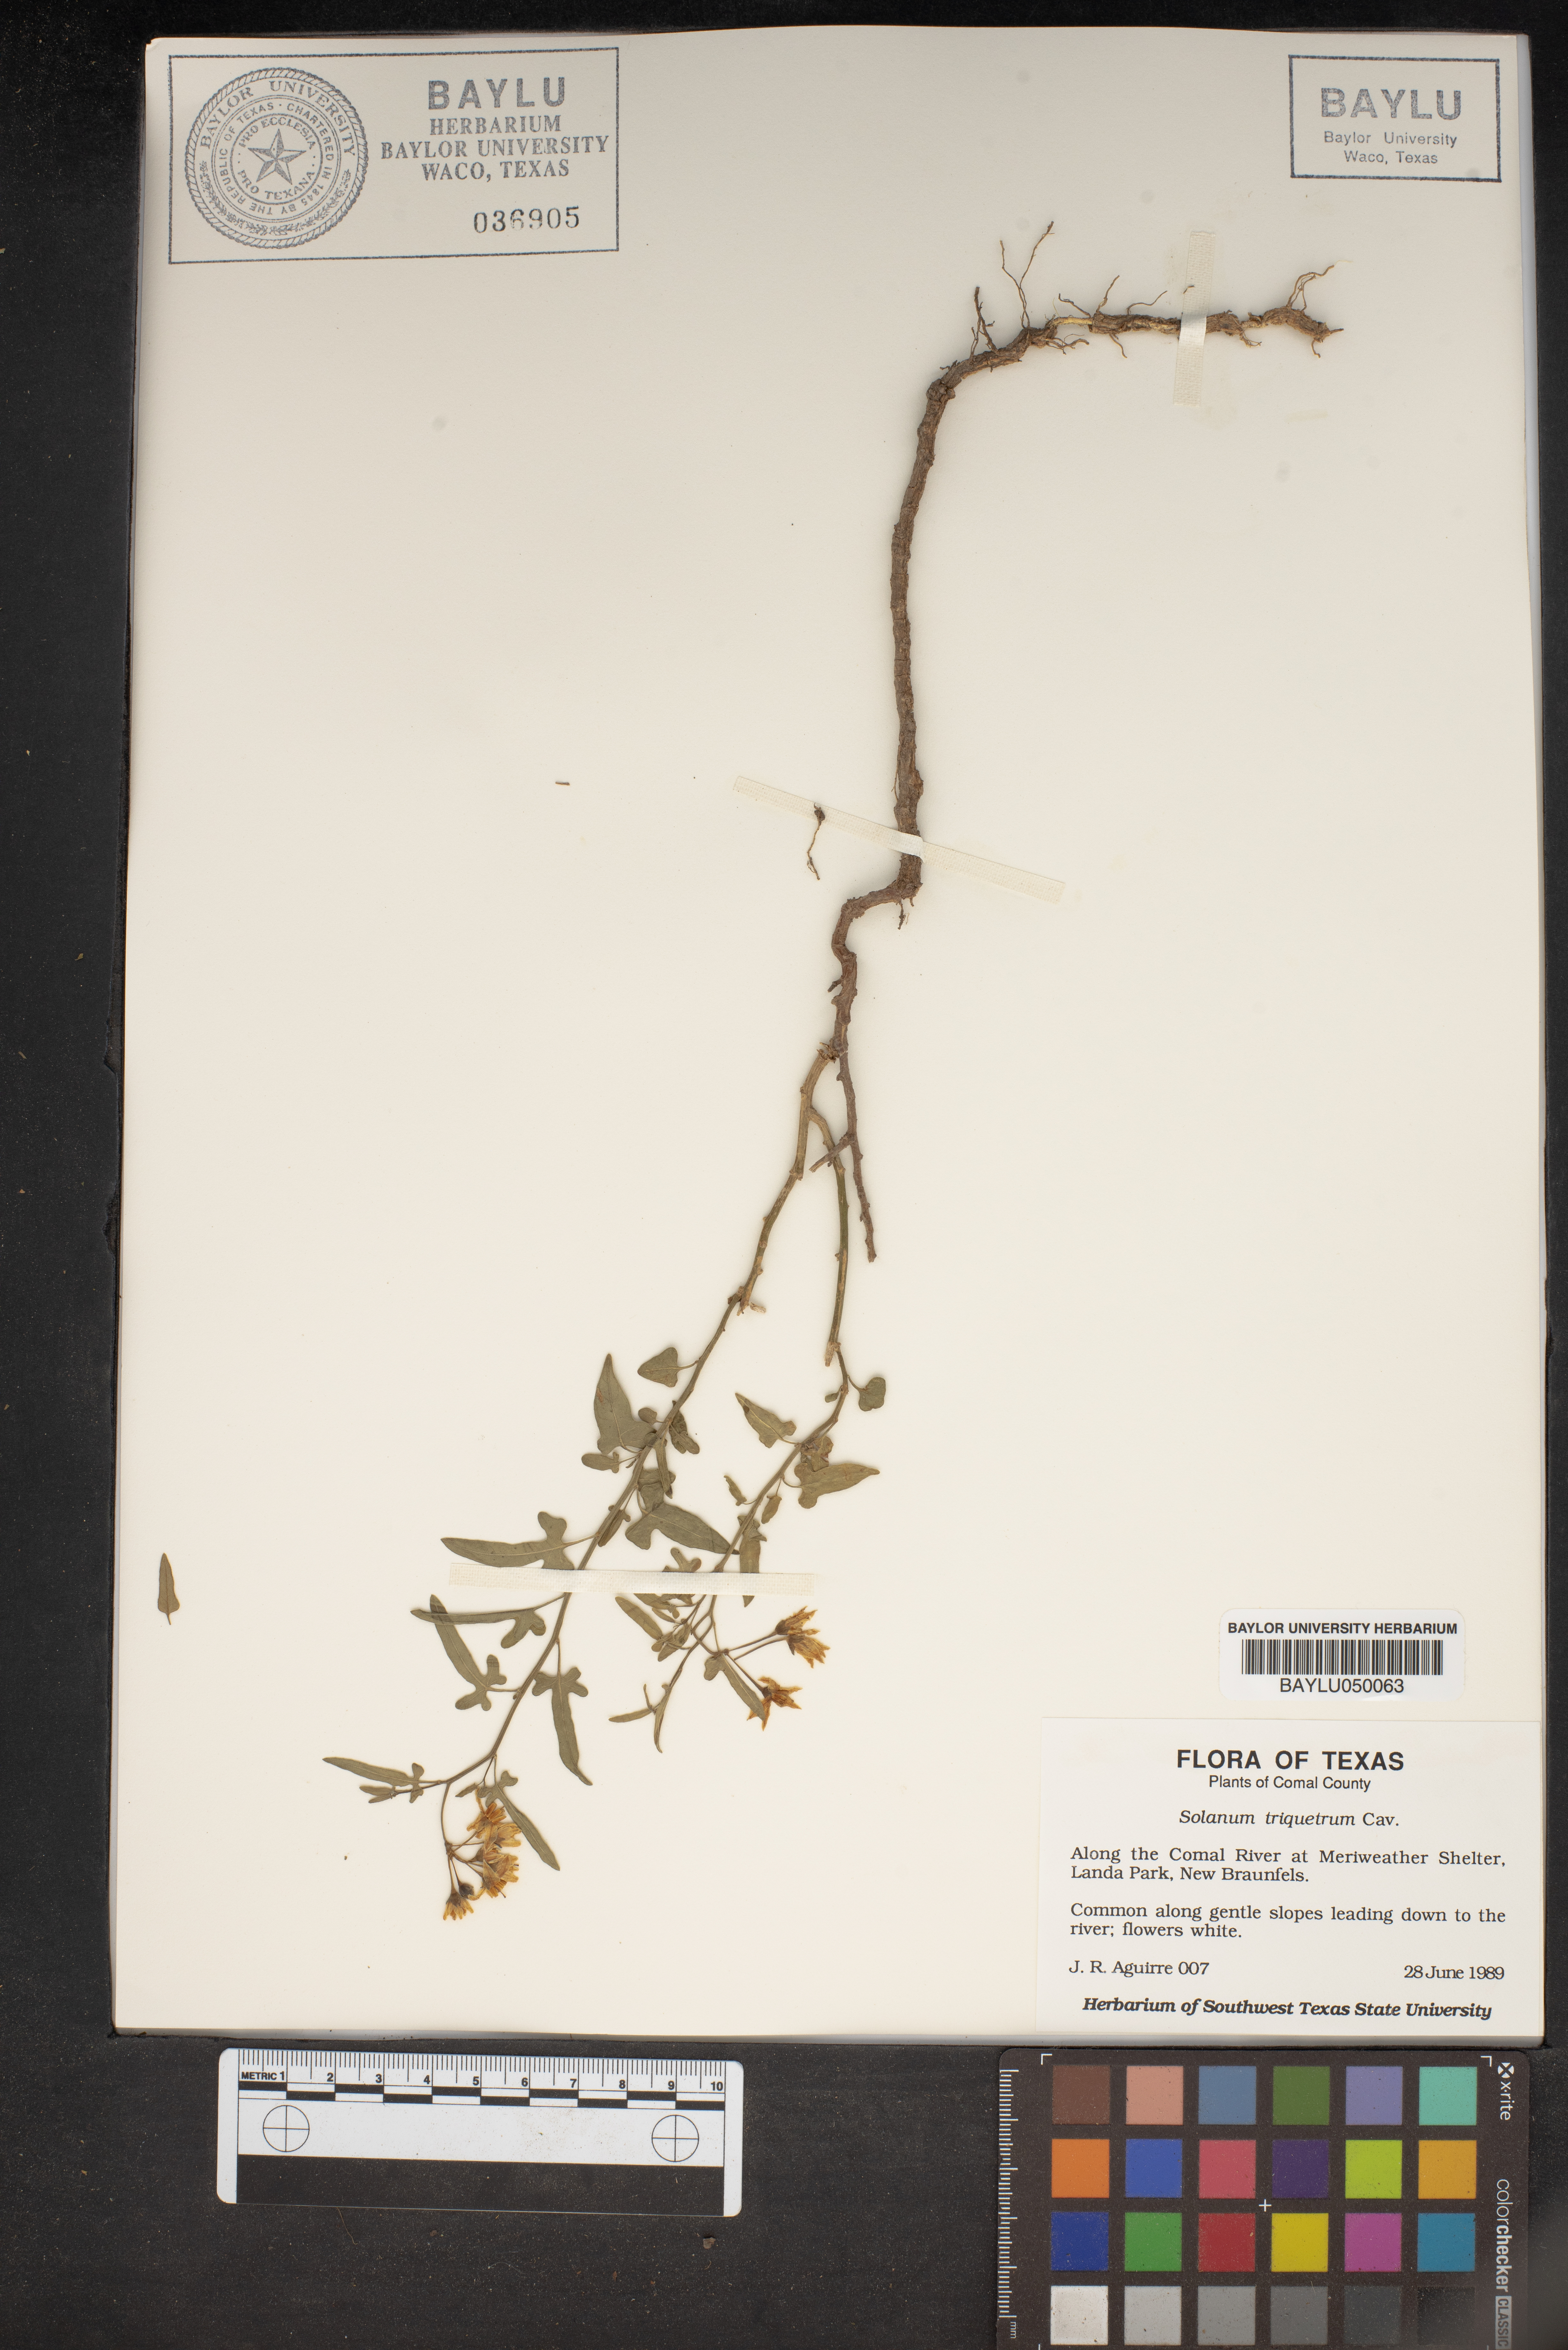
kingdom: Plantae
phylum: Tracheophyta
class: Magnoliopsida
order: Solanales
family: Solanaceae
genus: Solanum
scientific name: Solanum triquetrum
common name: Texas nightshade
